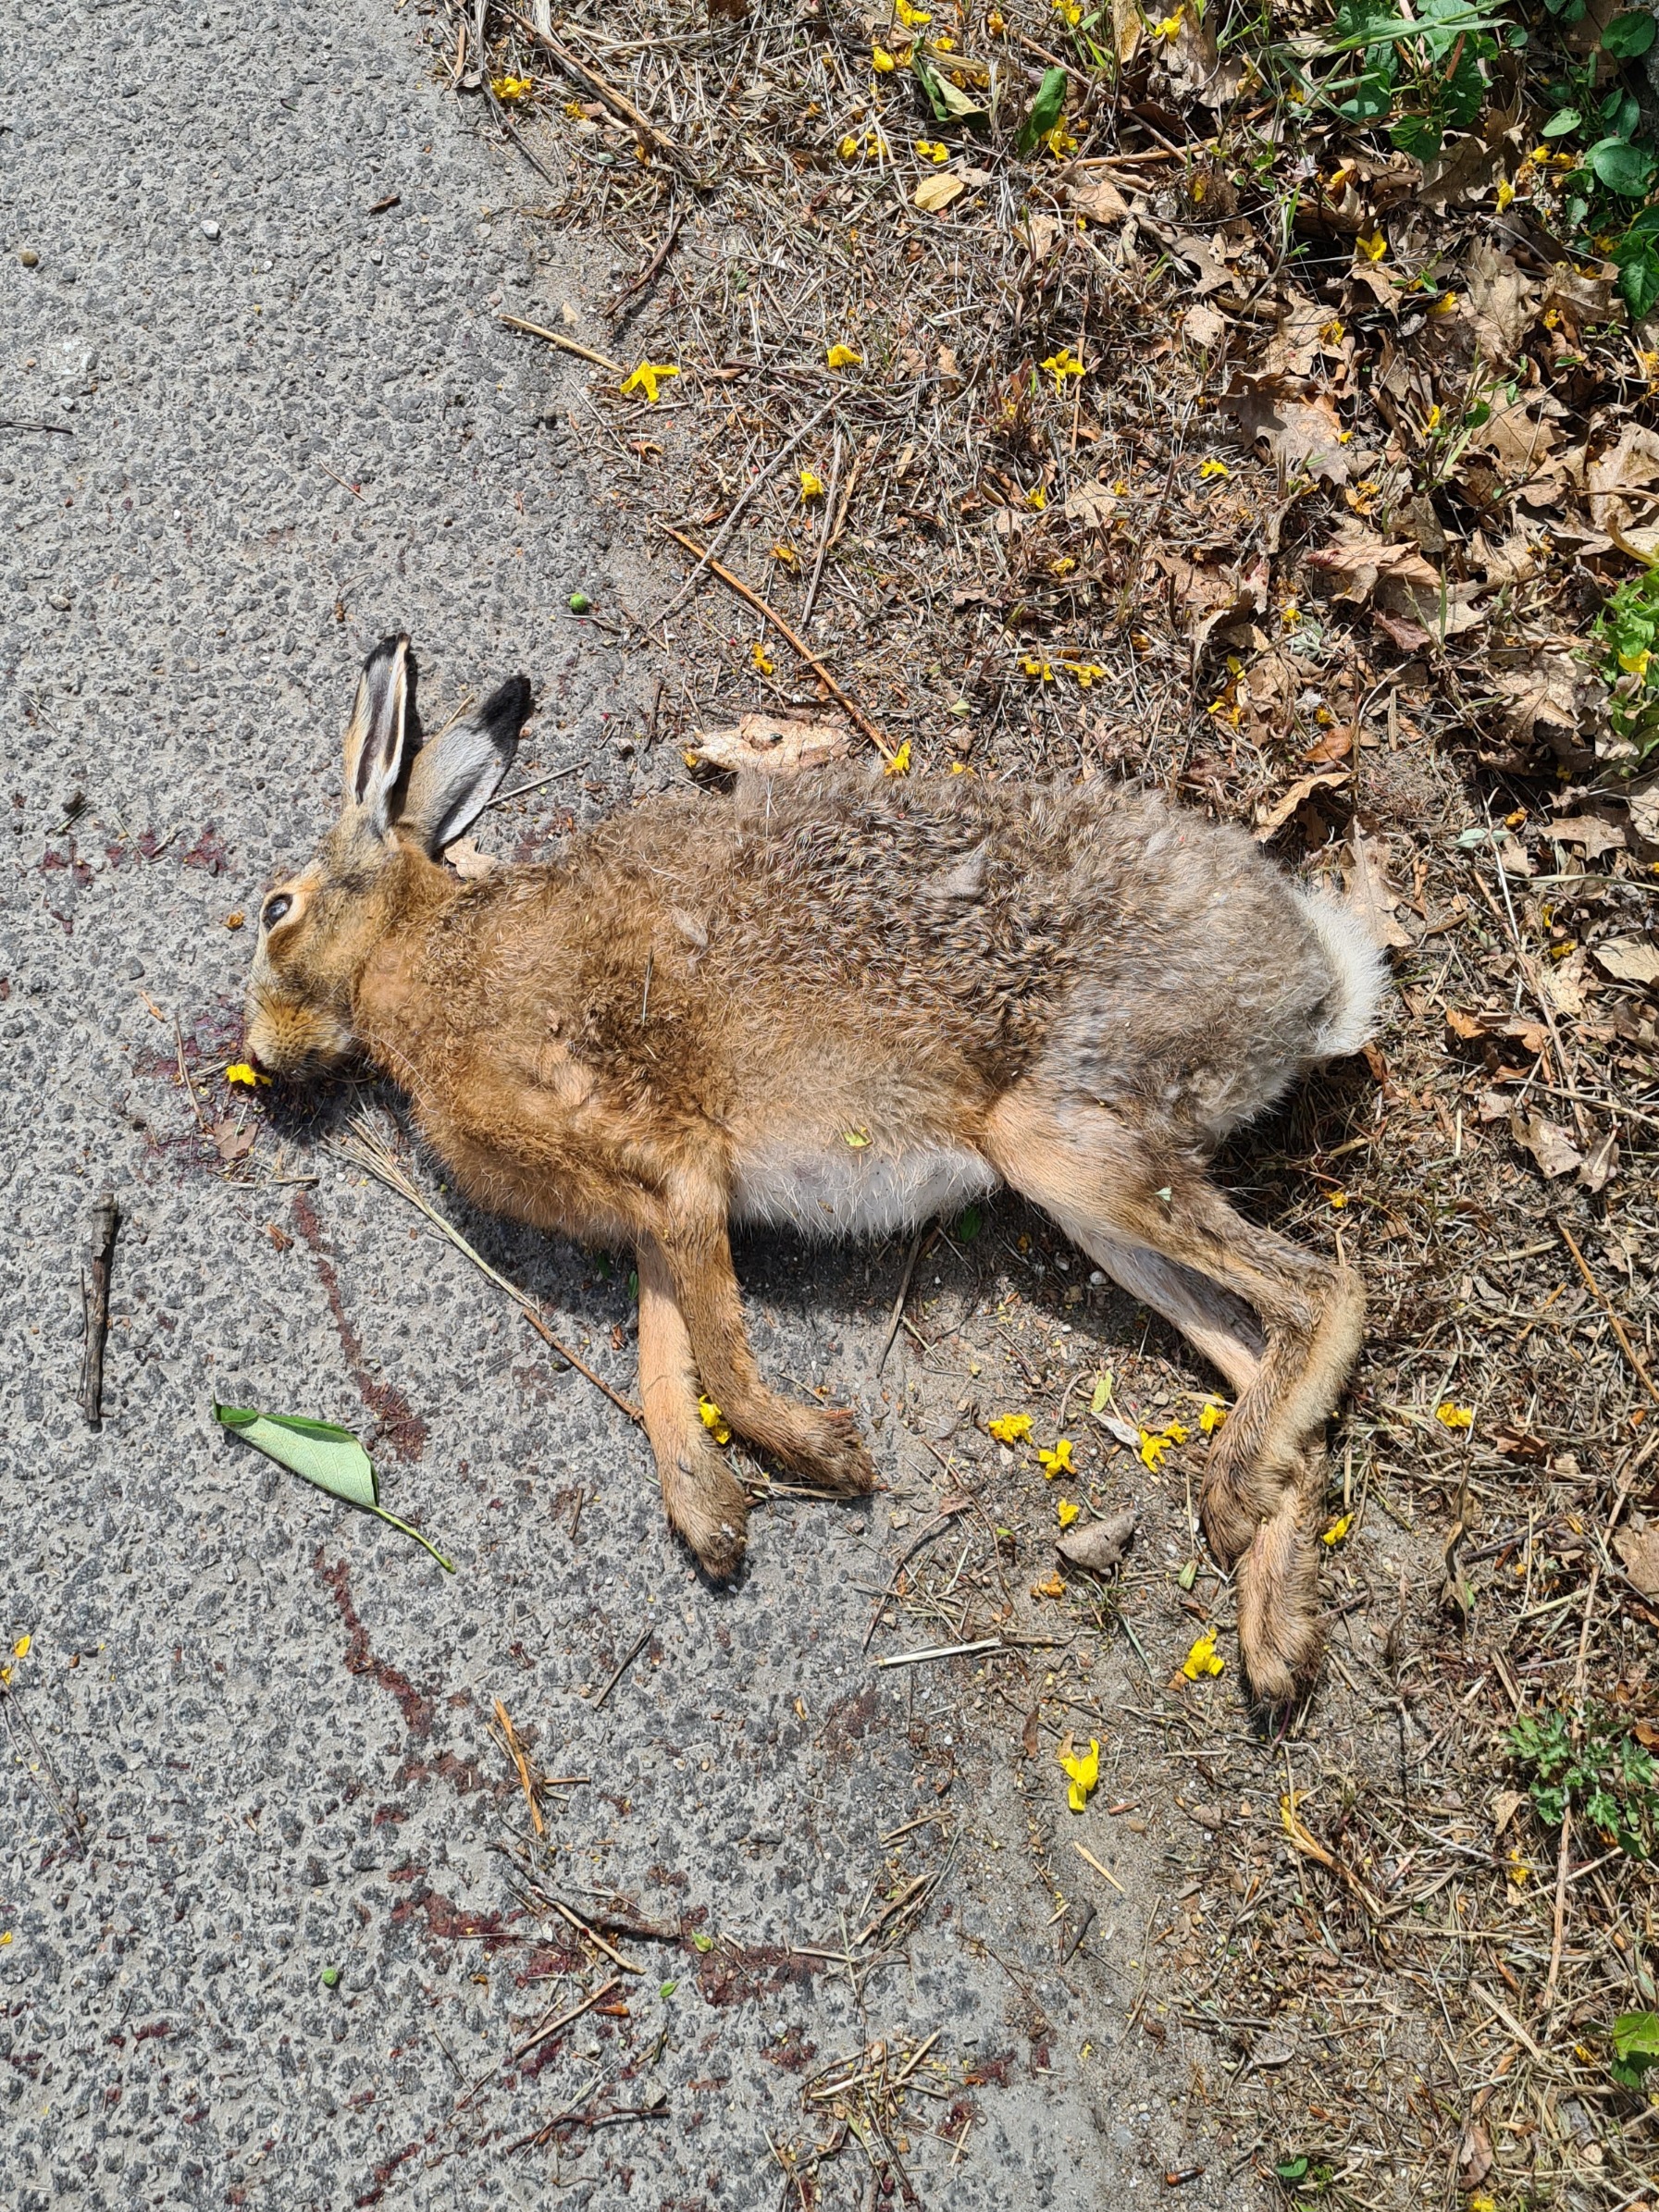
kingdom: Animalia
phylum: Chordata
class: Mammalia
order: Lagomorpha
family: Leporidae
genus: Lepus
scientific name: Lepus europaeus
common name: Hare
